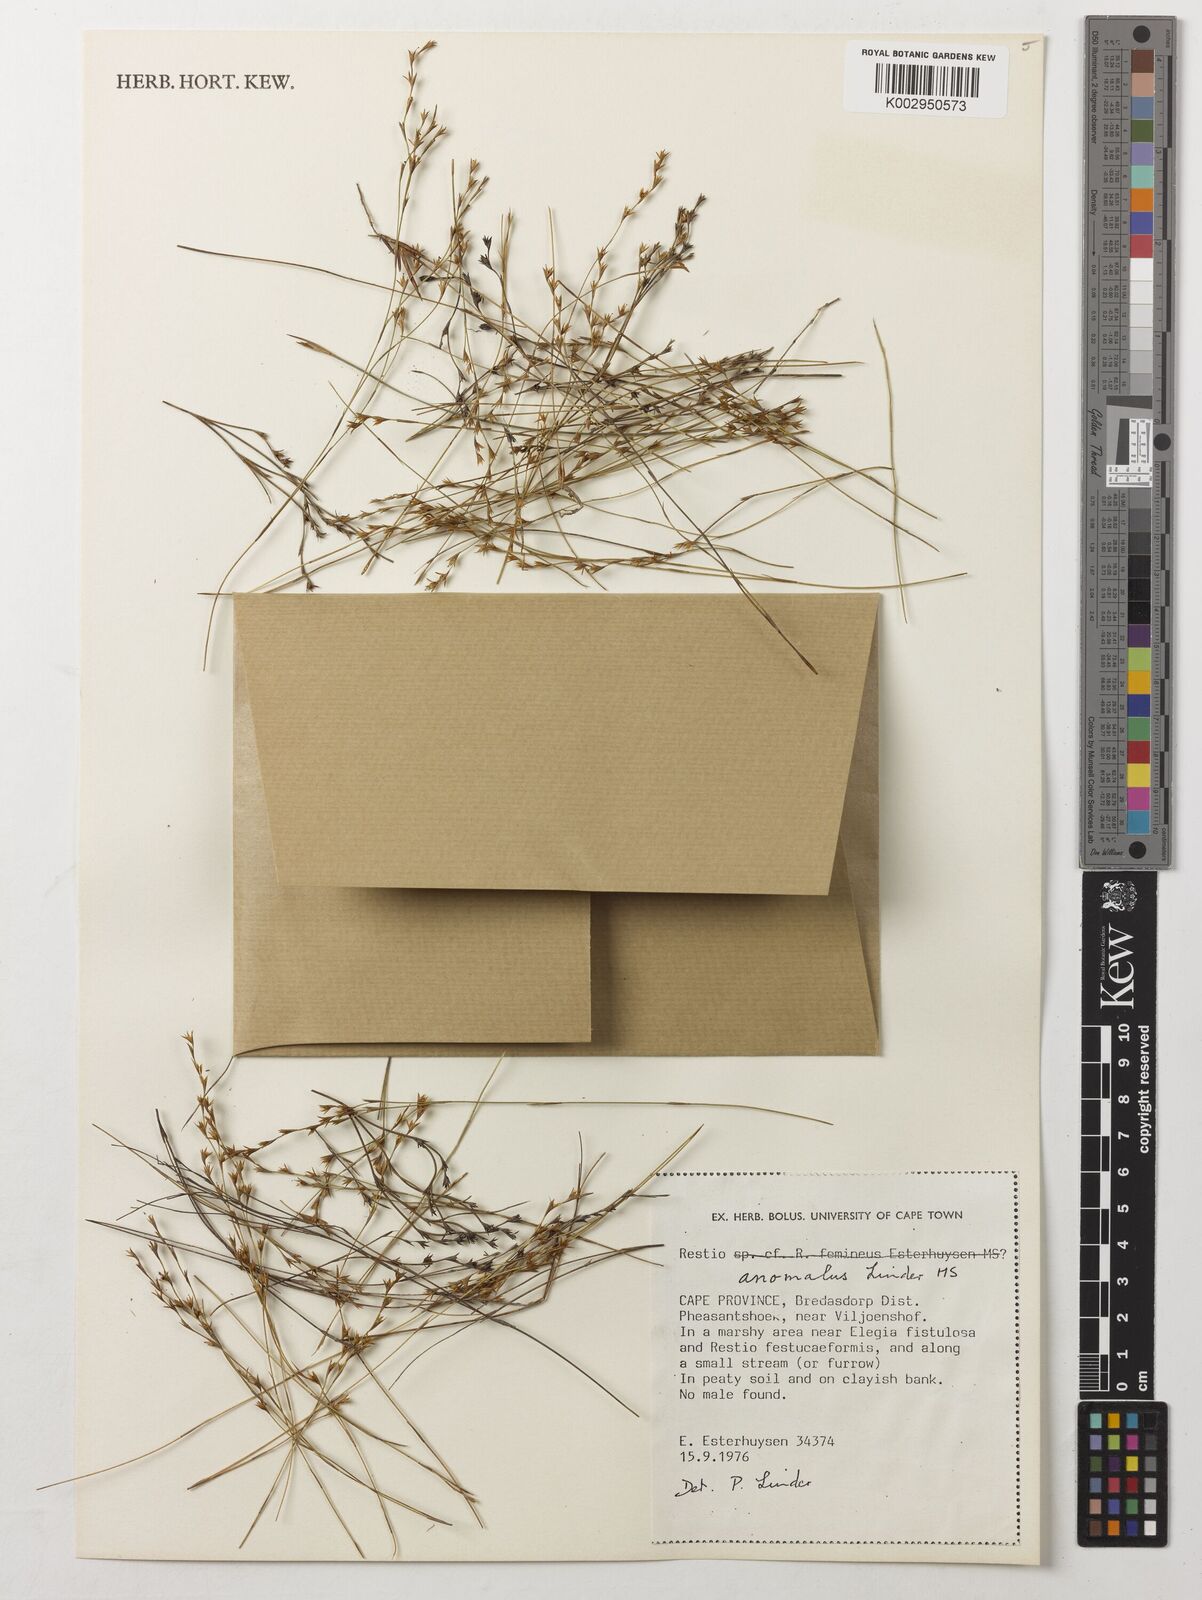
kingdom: Plantae
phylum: Tracheophyta
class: Liliopsida
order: Poales
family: Restionaceae
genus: Restio
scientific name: Restio anomalus
